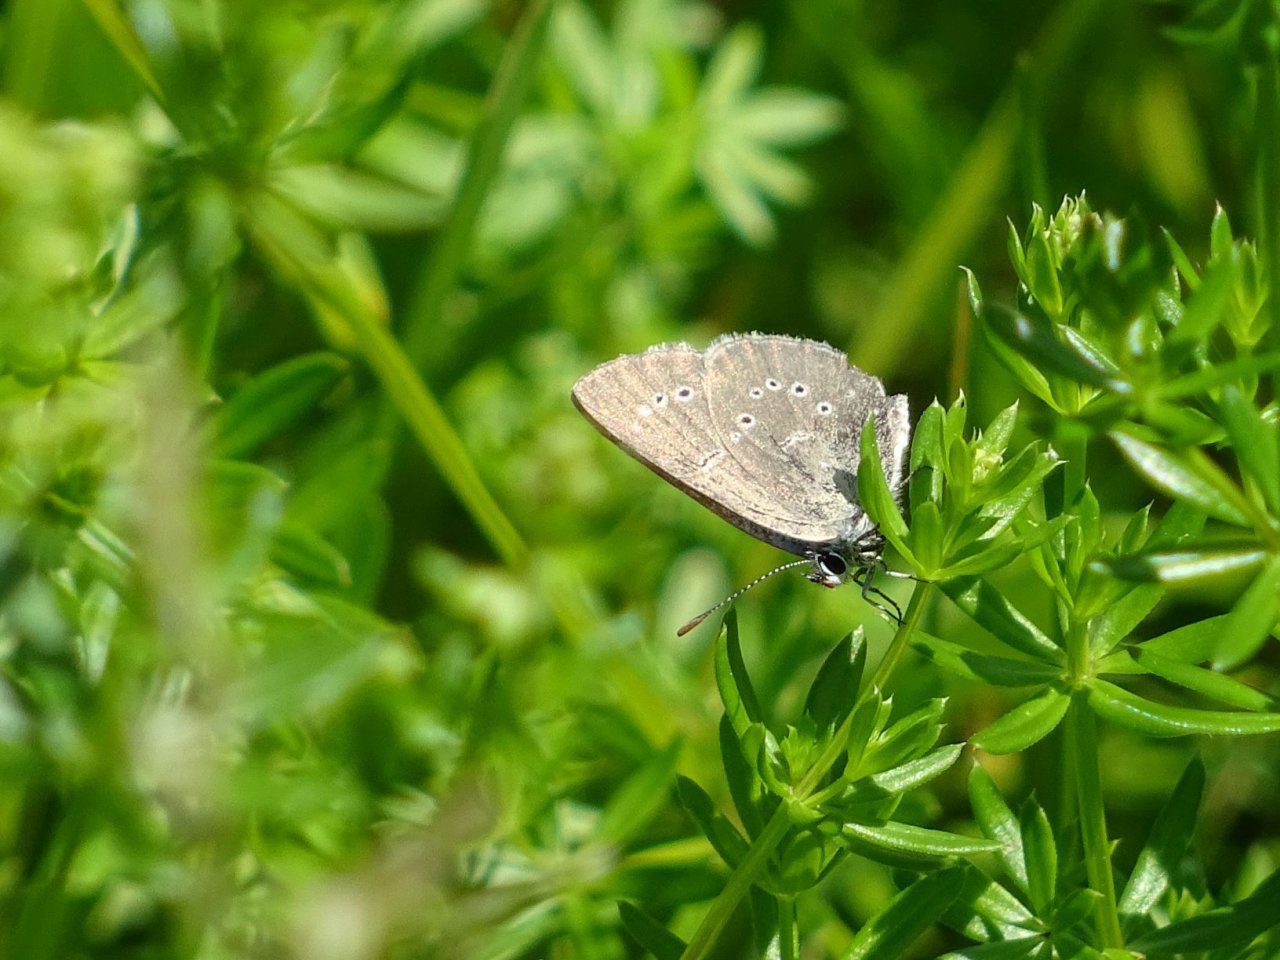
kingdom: Animalia
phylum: Arthropoda
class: Insecta
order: Lepidoptera
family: Lycaenidae
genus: Glaucopsyche
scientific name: Glaucopsyche lygdamus
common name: Silvery Blue
